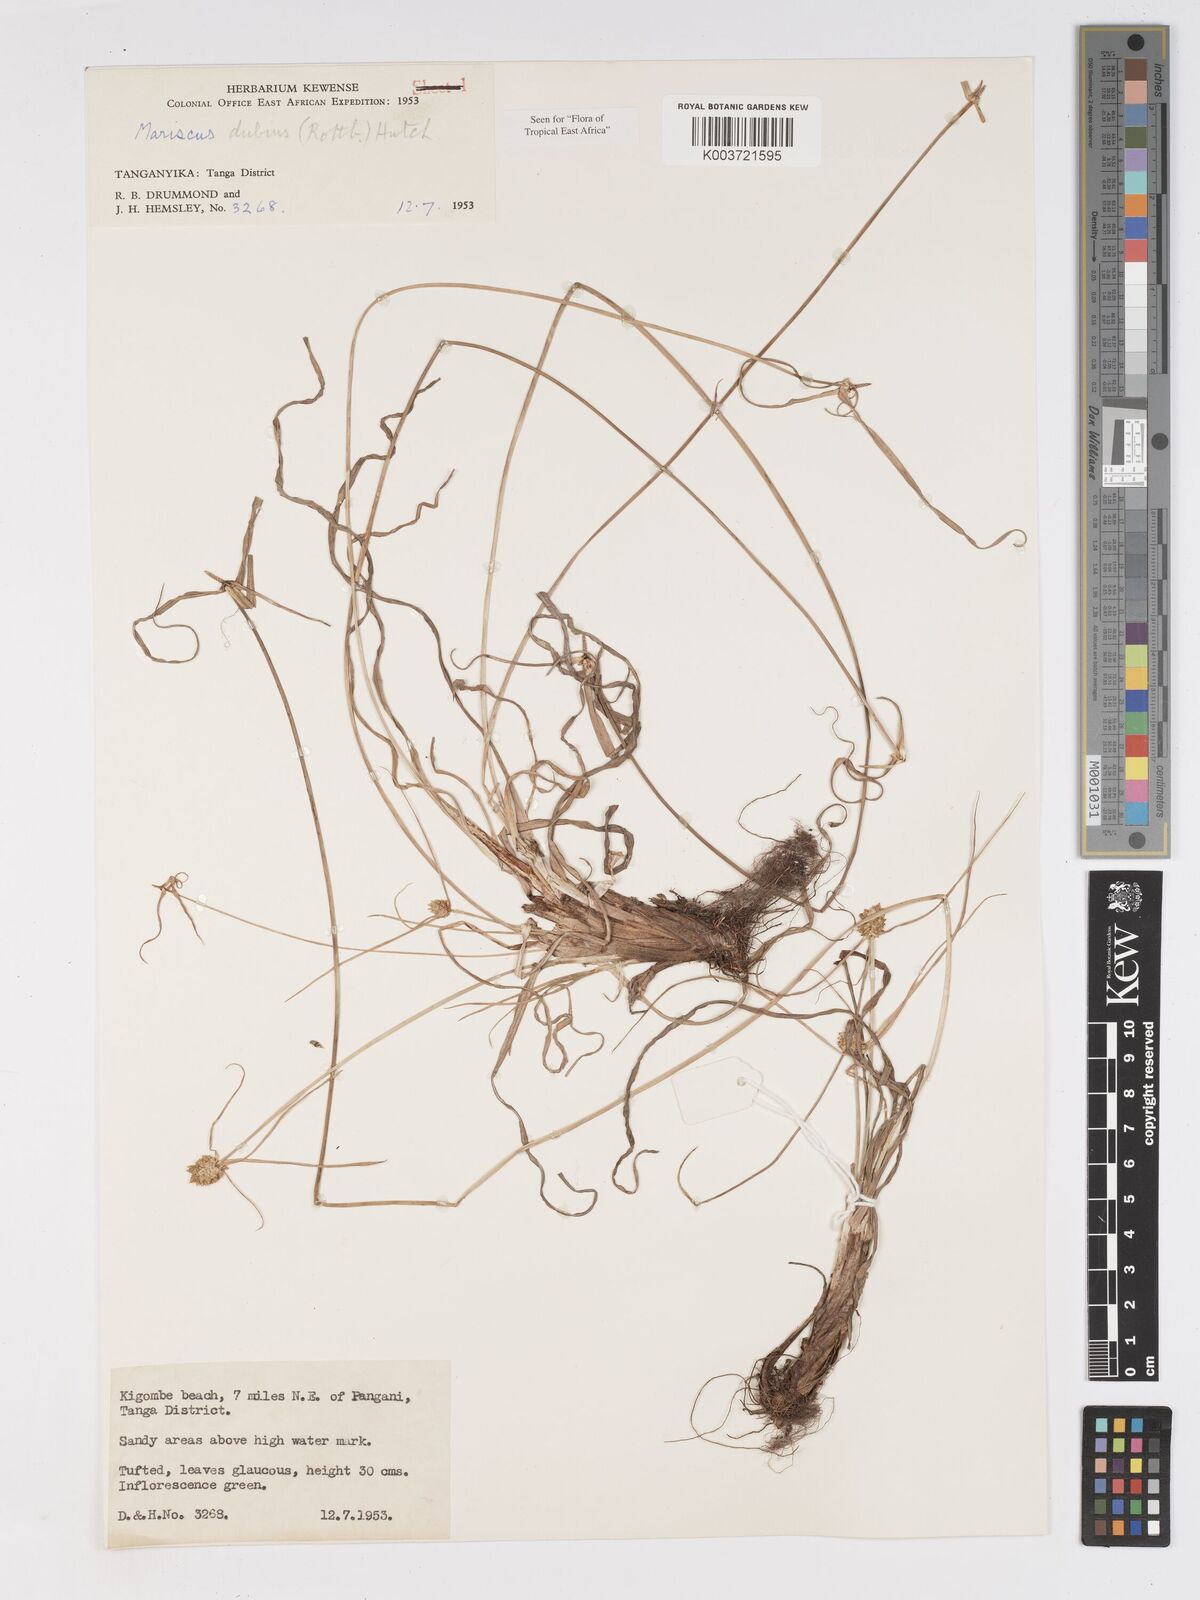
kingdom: Plantae
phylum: Tracheophyta
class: Liliopsida
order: Poales
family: Cyperaceae
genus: Cyperus
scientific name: Cyperus dubius
